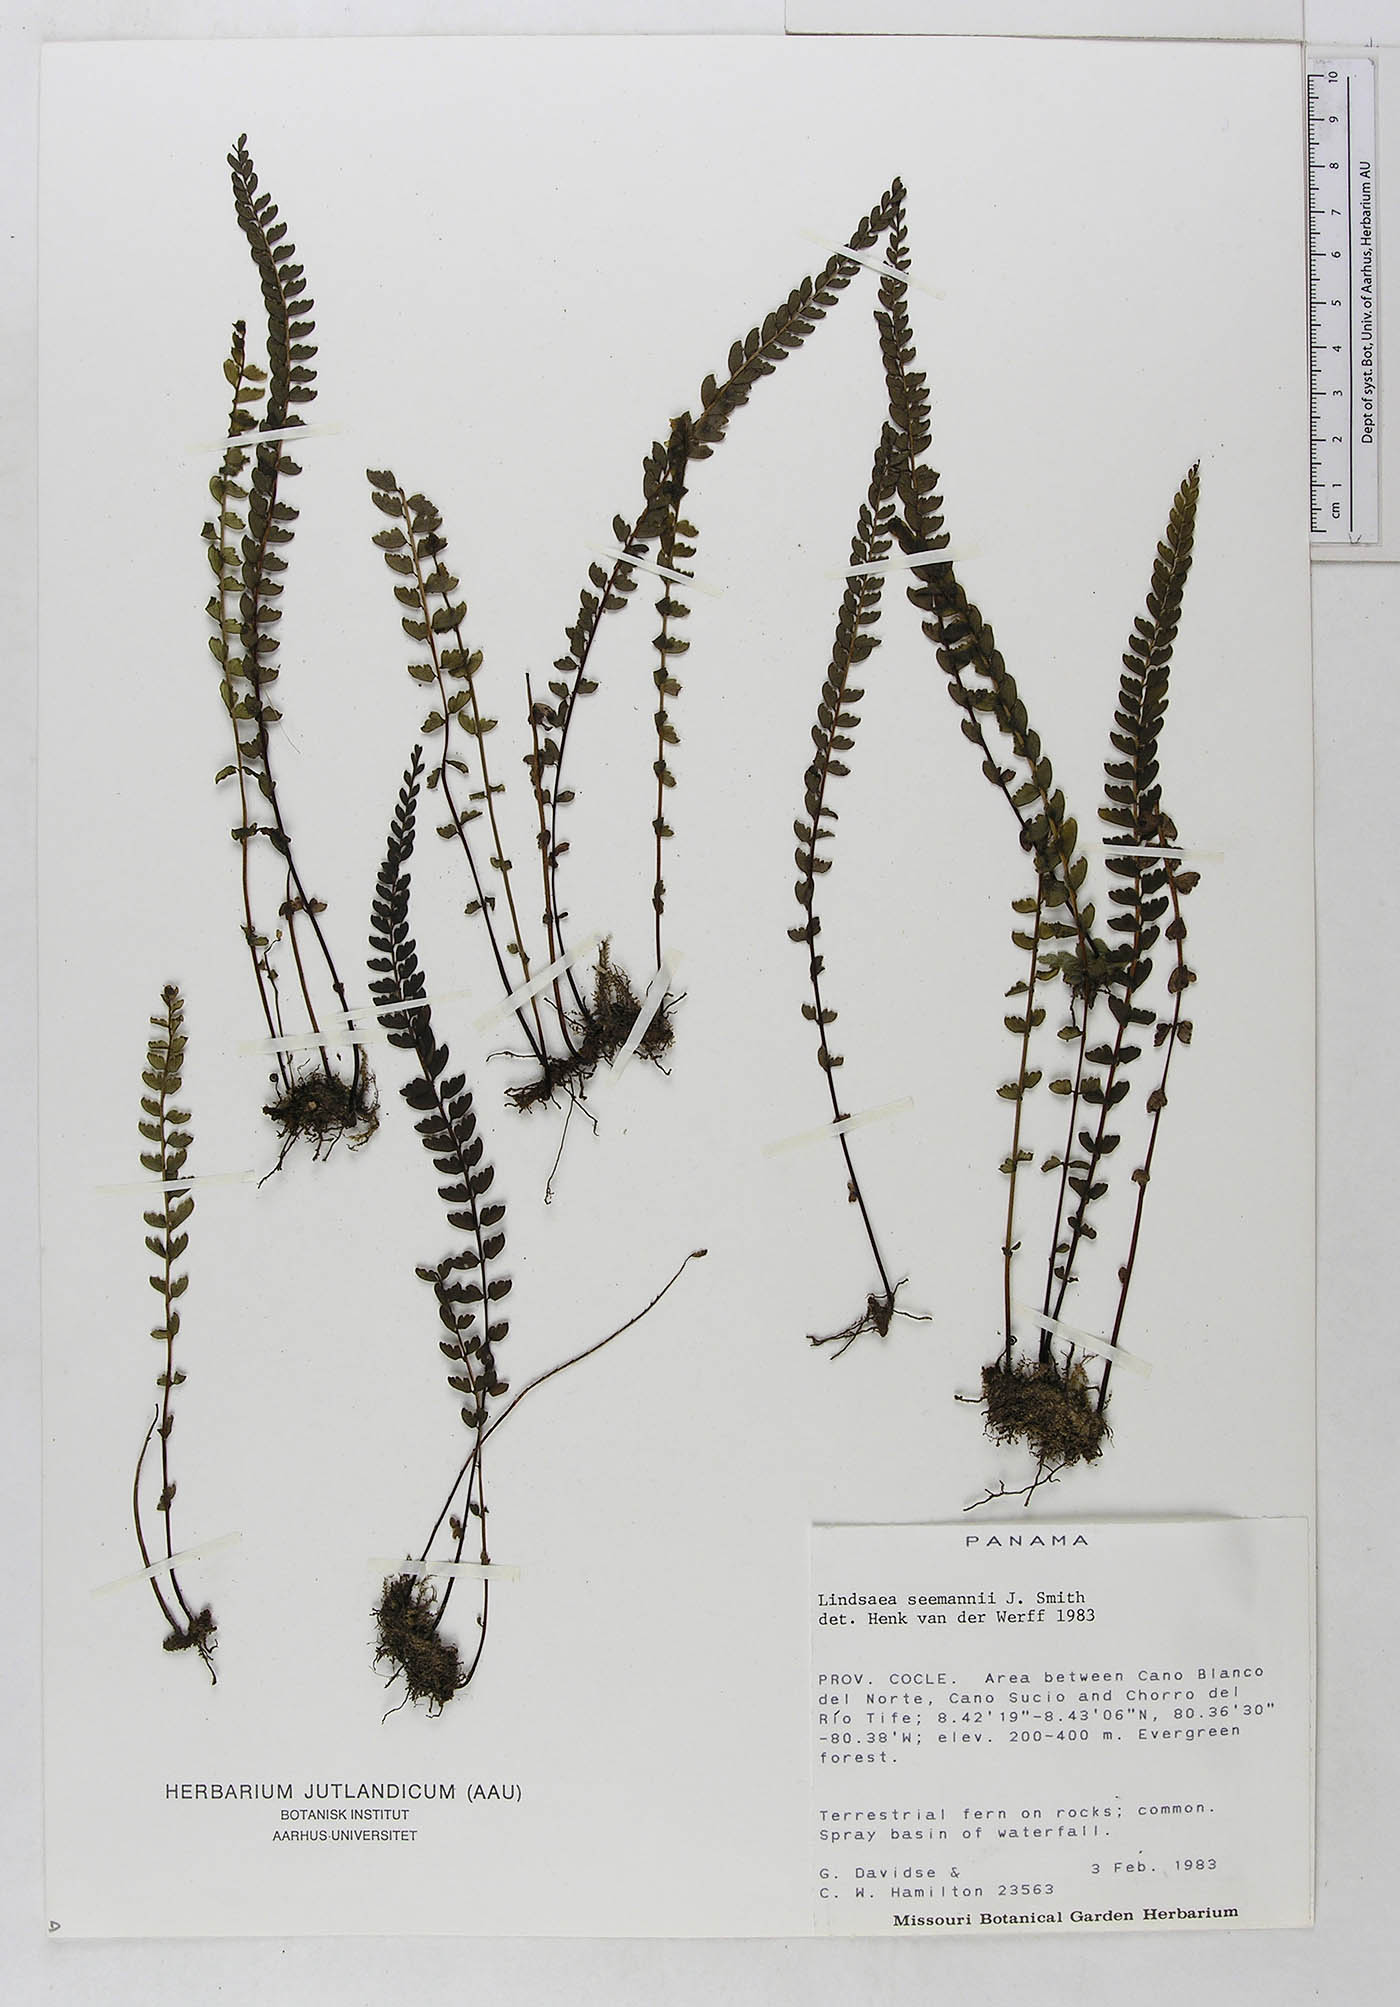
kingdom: Plantae
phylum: Tracheophyta
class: Polypodiopsida
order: Polypodiales
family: Dennstaedtiaceae
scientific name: Dennstaedtiaceae
